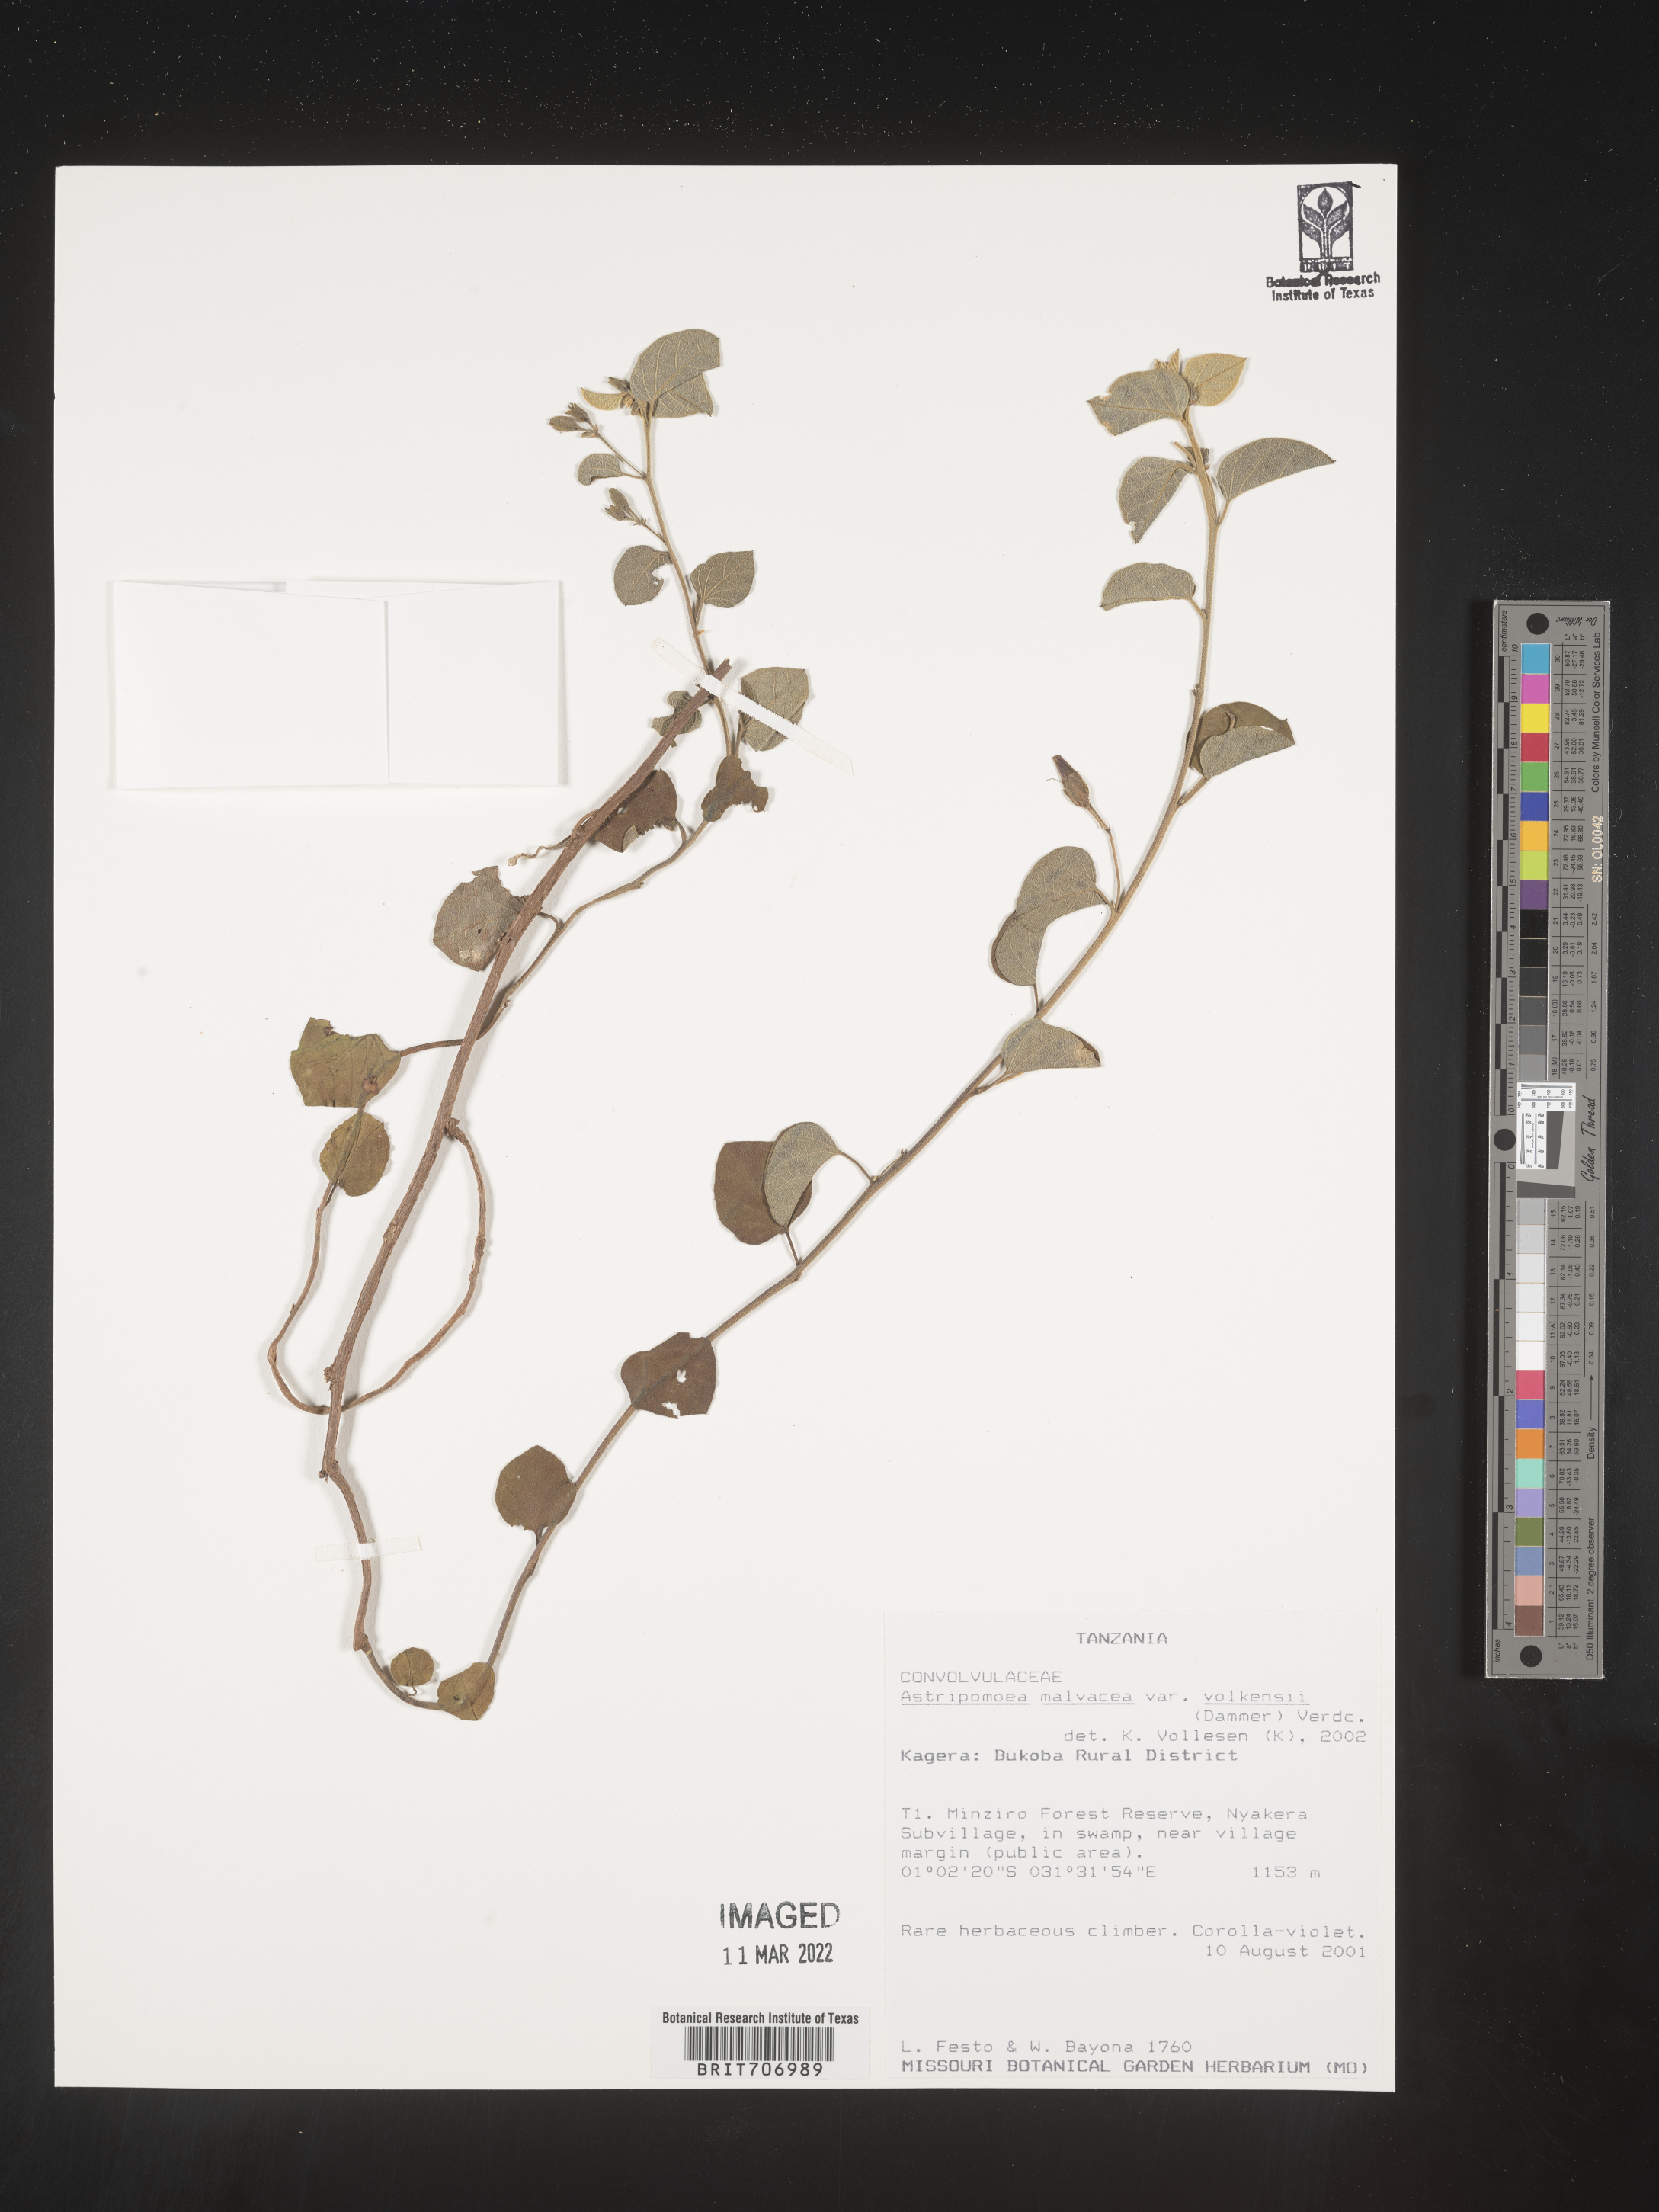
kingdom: Plantae
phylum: Tracheophyta
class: Magnoliopsida
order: Solanales
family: Convolvulaceae
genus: Astripomoea
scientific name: Astripomoea
